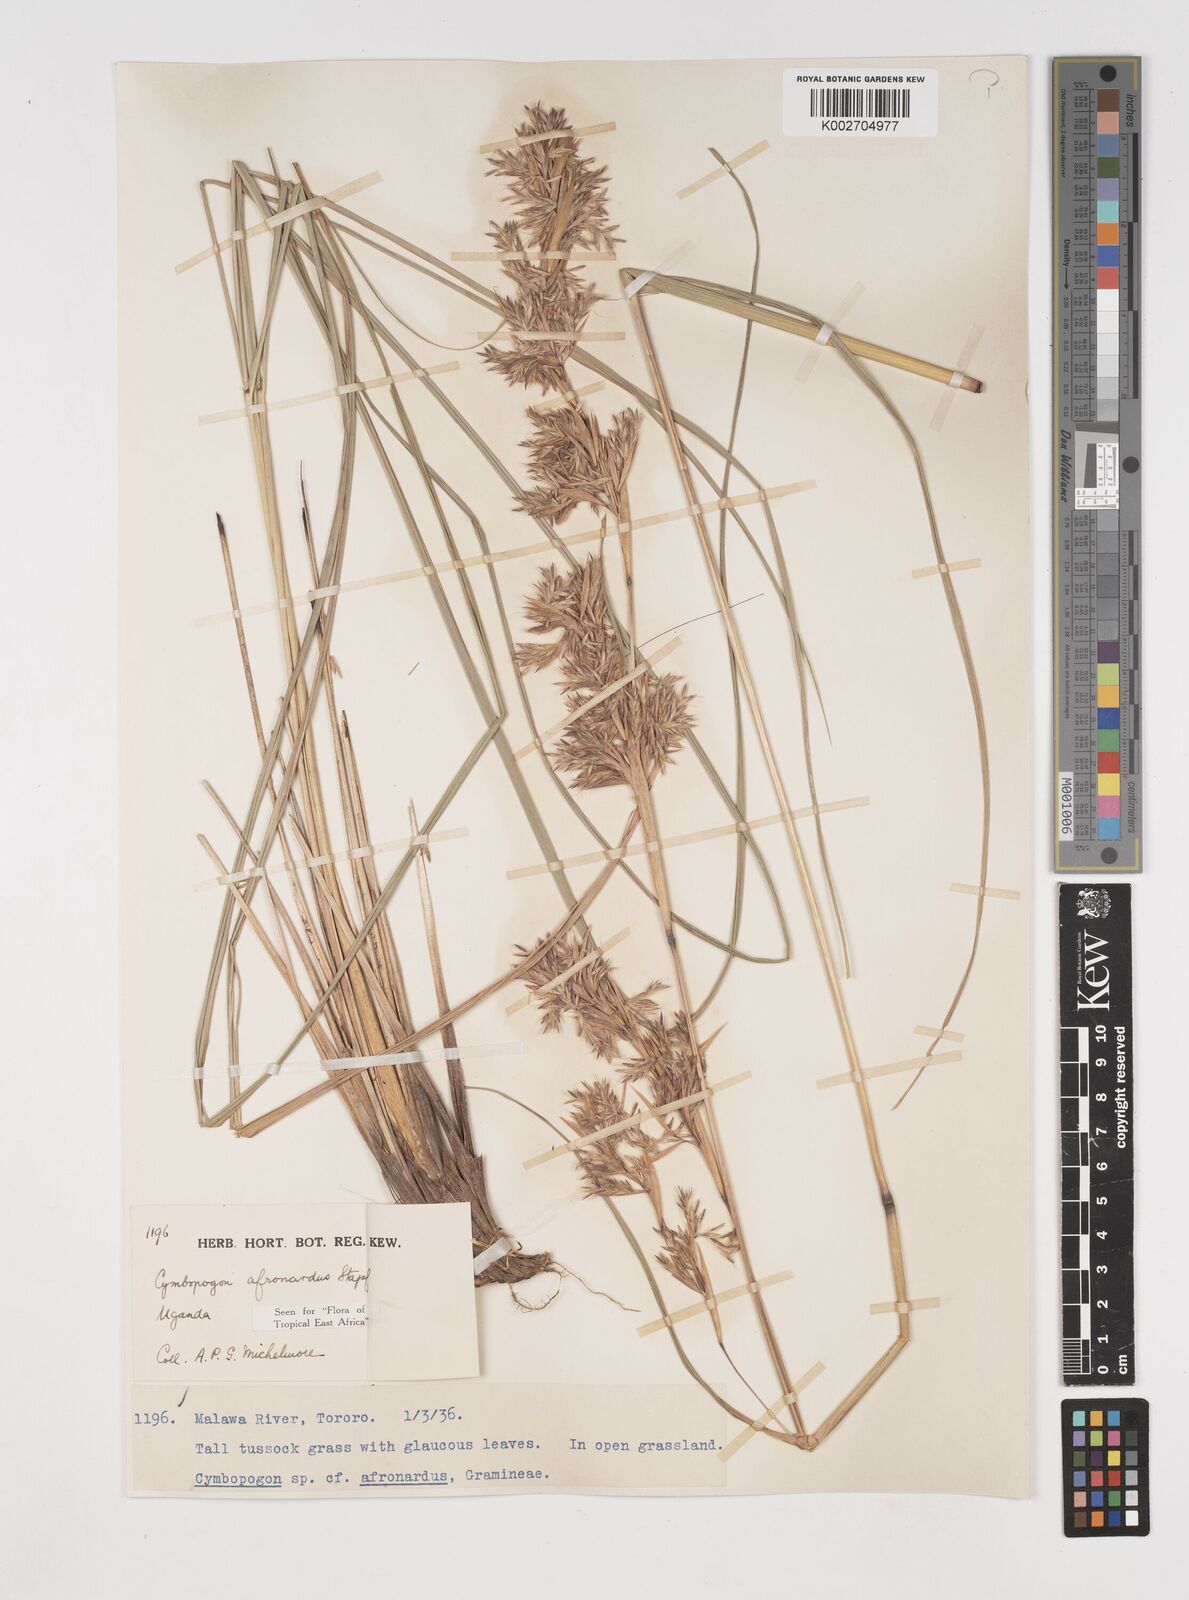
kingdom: Plantae
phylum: Tracheophyta
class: Liliopsida
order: Poales
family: Poaceae
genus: Cymbopogon
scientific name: Cymbopogon nardus
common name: Giant turpentine grass
